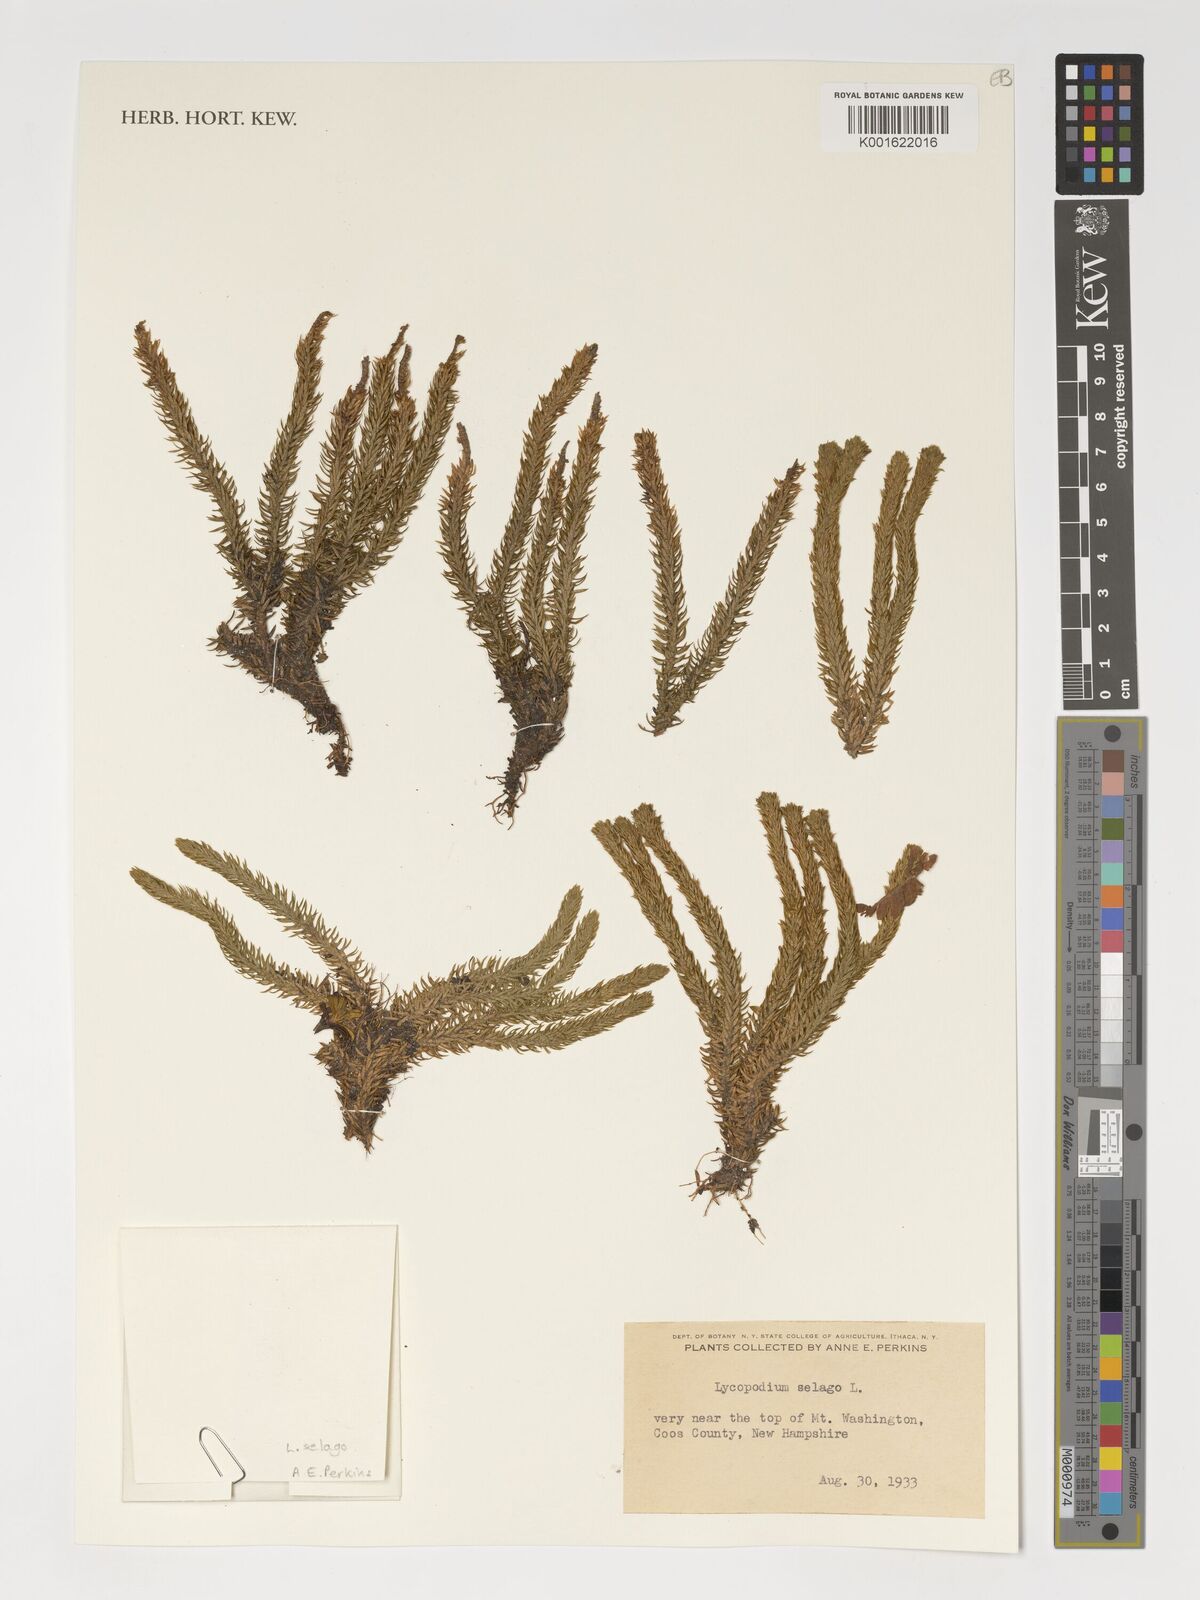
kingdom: Plantae
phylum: Tracheophyta
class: Lycopodiopsida
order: Lycopodiales
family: Lycopodiaceae
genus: Huperzia
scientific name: Huperzia selago
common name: Northern firmoss
